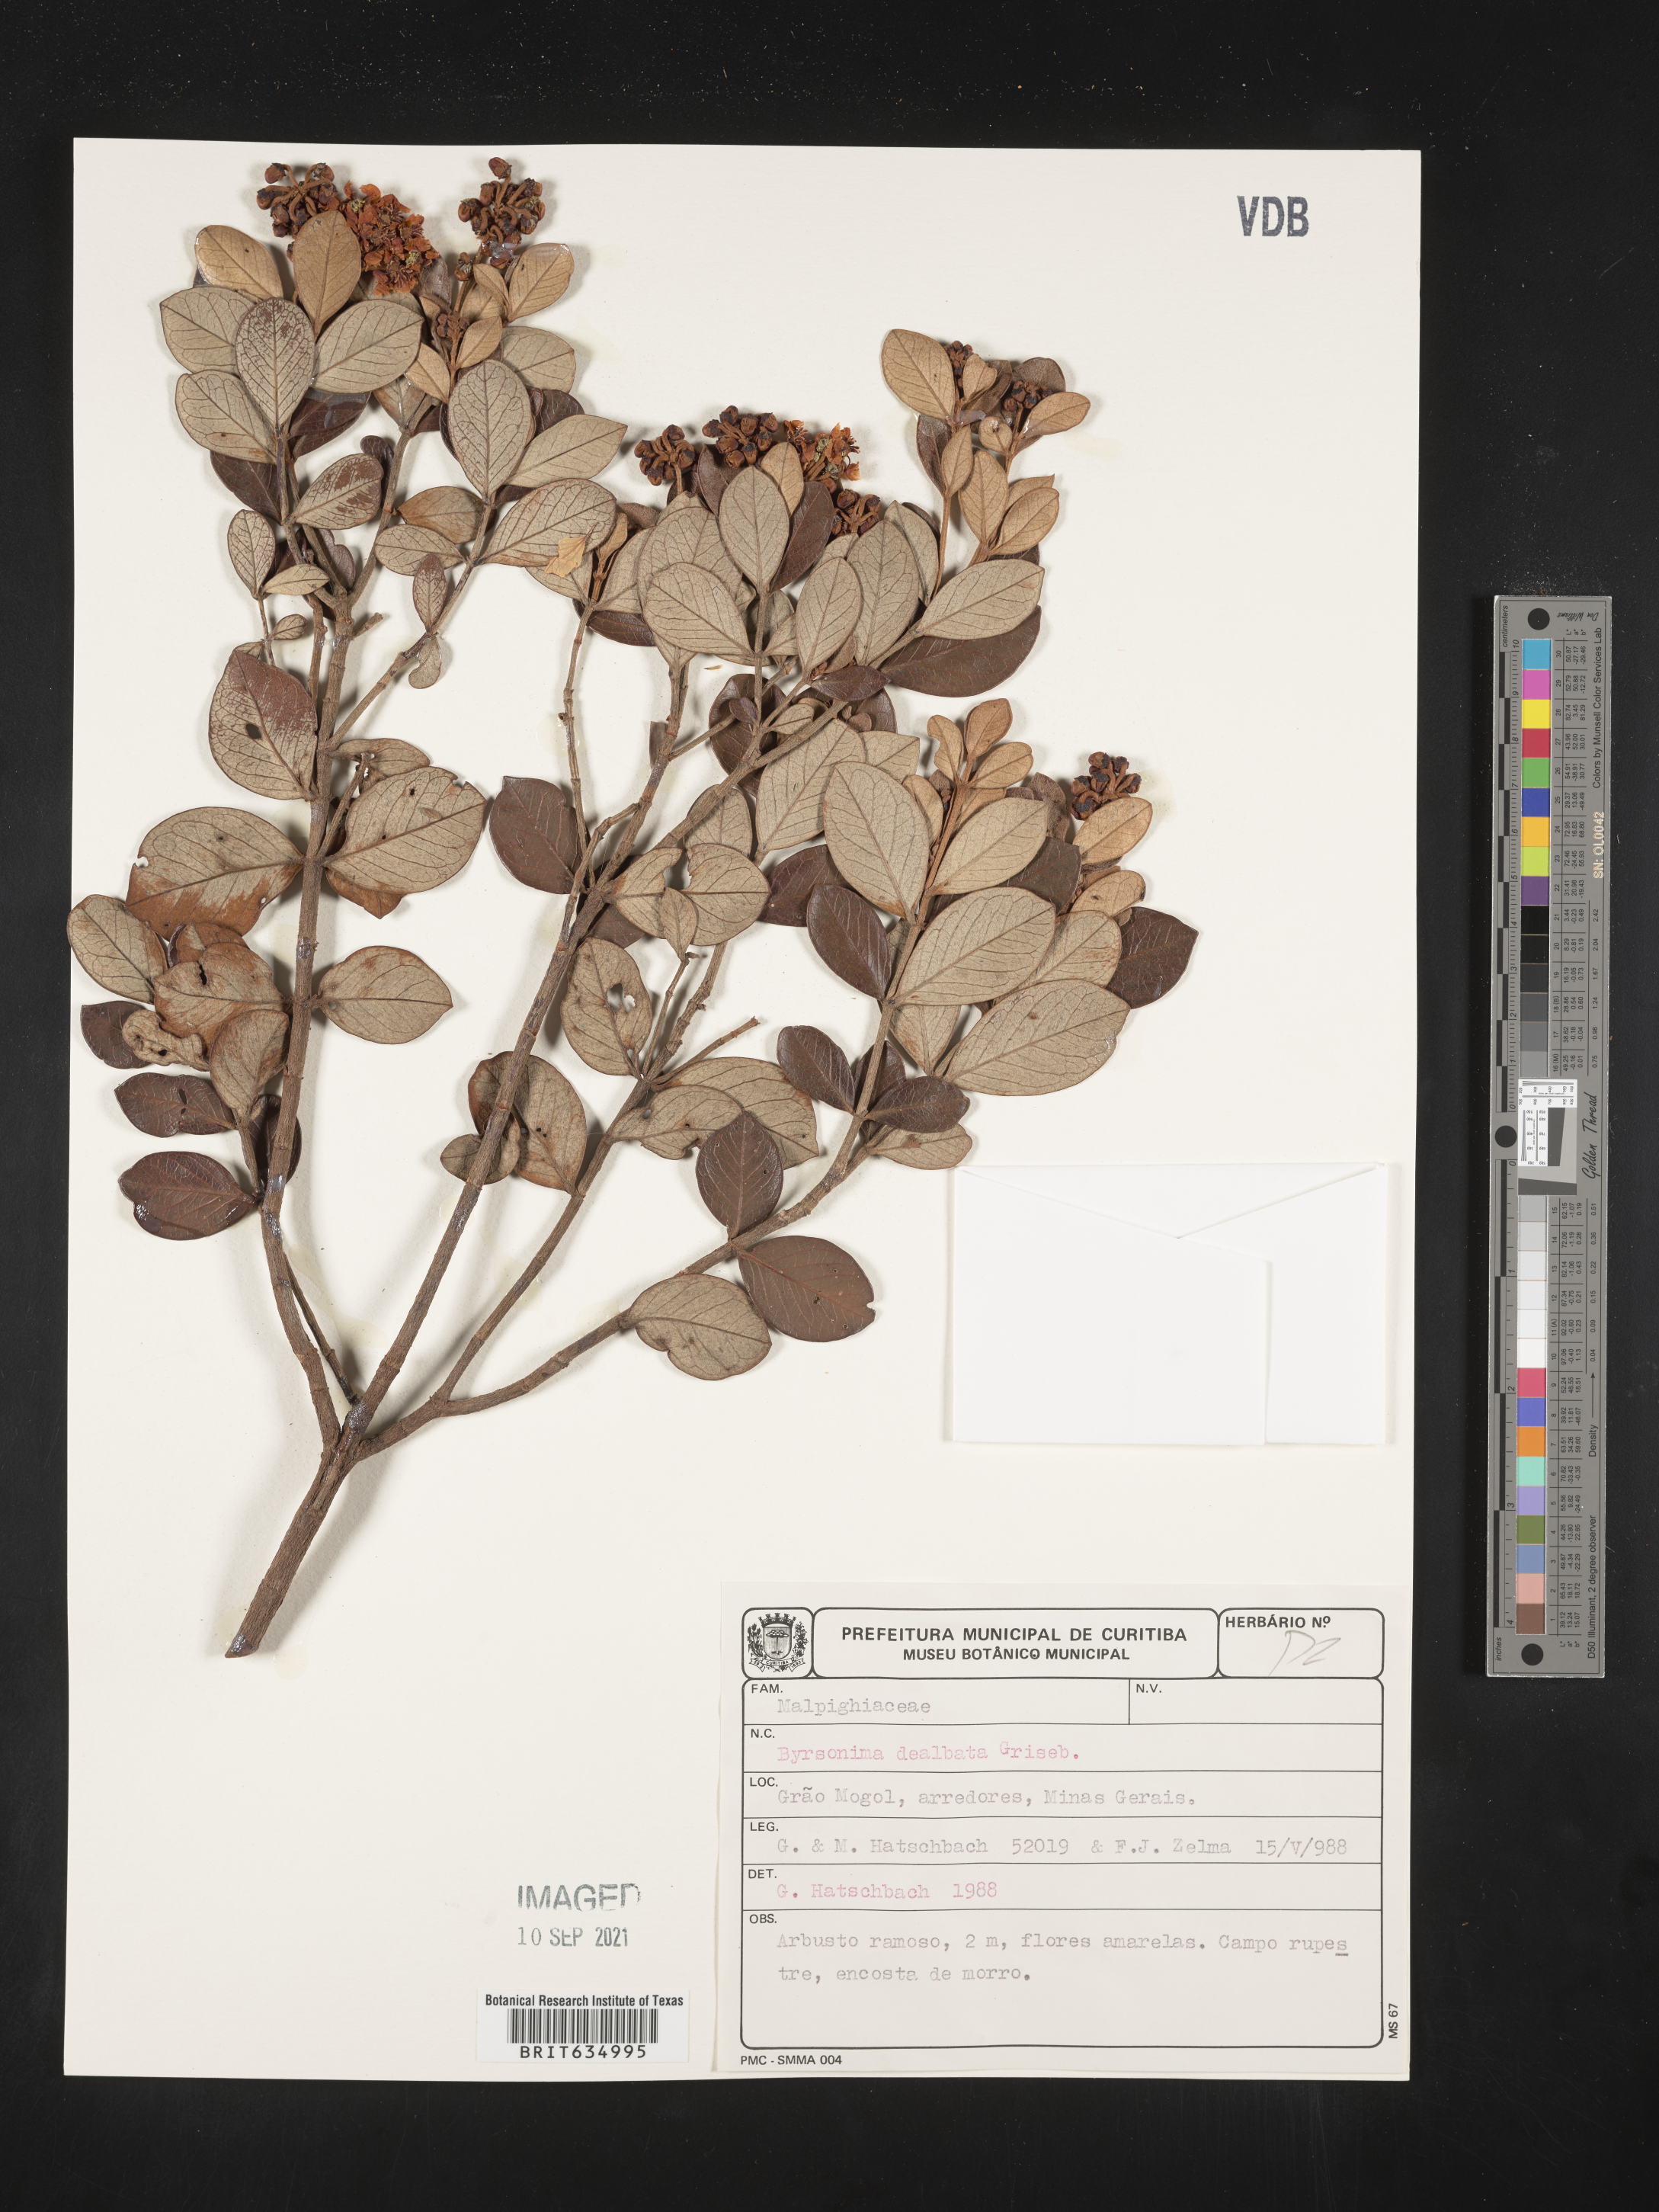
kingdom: Plantae
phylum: Tracheophyta
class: Magnoliopsida
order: Malpighiales
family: Malpighiaceae
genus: Byrsonima
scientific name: Byrsonima
